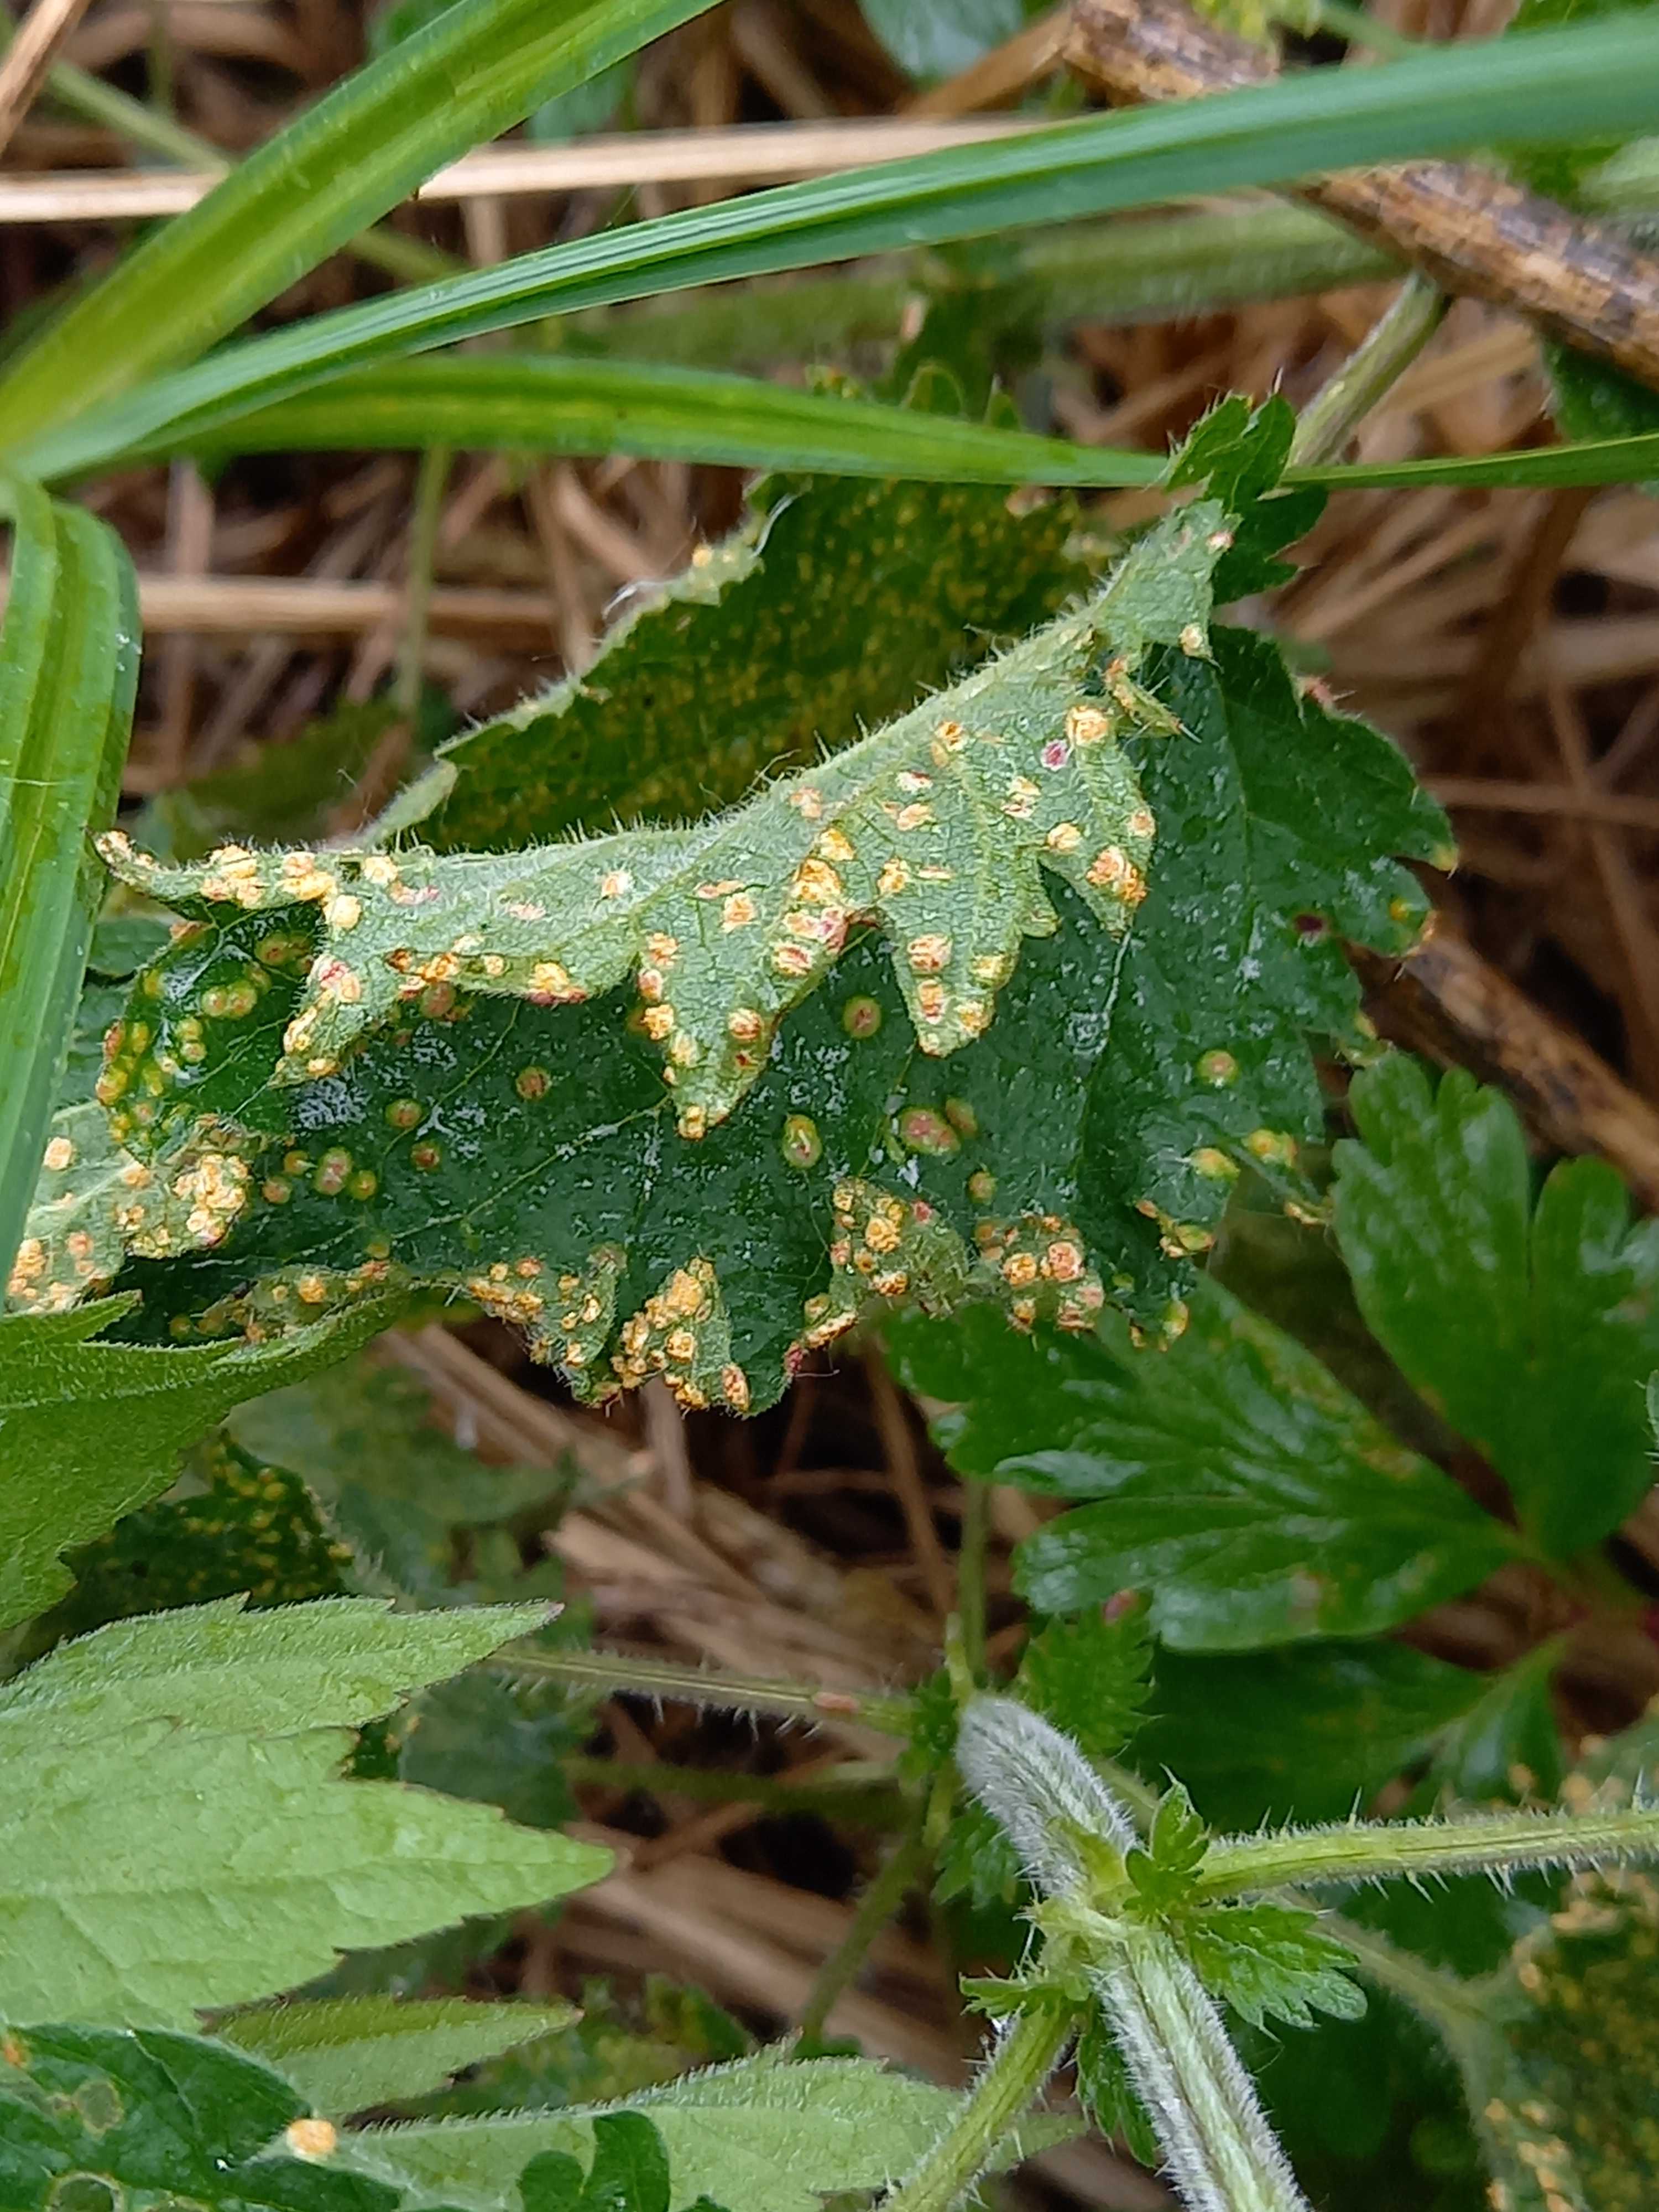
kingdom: Fungi
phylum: Basidiomycota
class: Pucciniomycetes
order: Pucciniales
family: Pucciniaceae
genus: Puccinia
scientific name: Puccinia urticata
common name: nældegalle-tvecellerust
